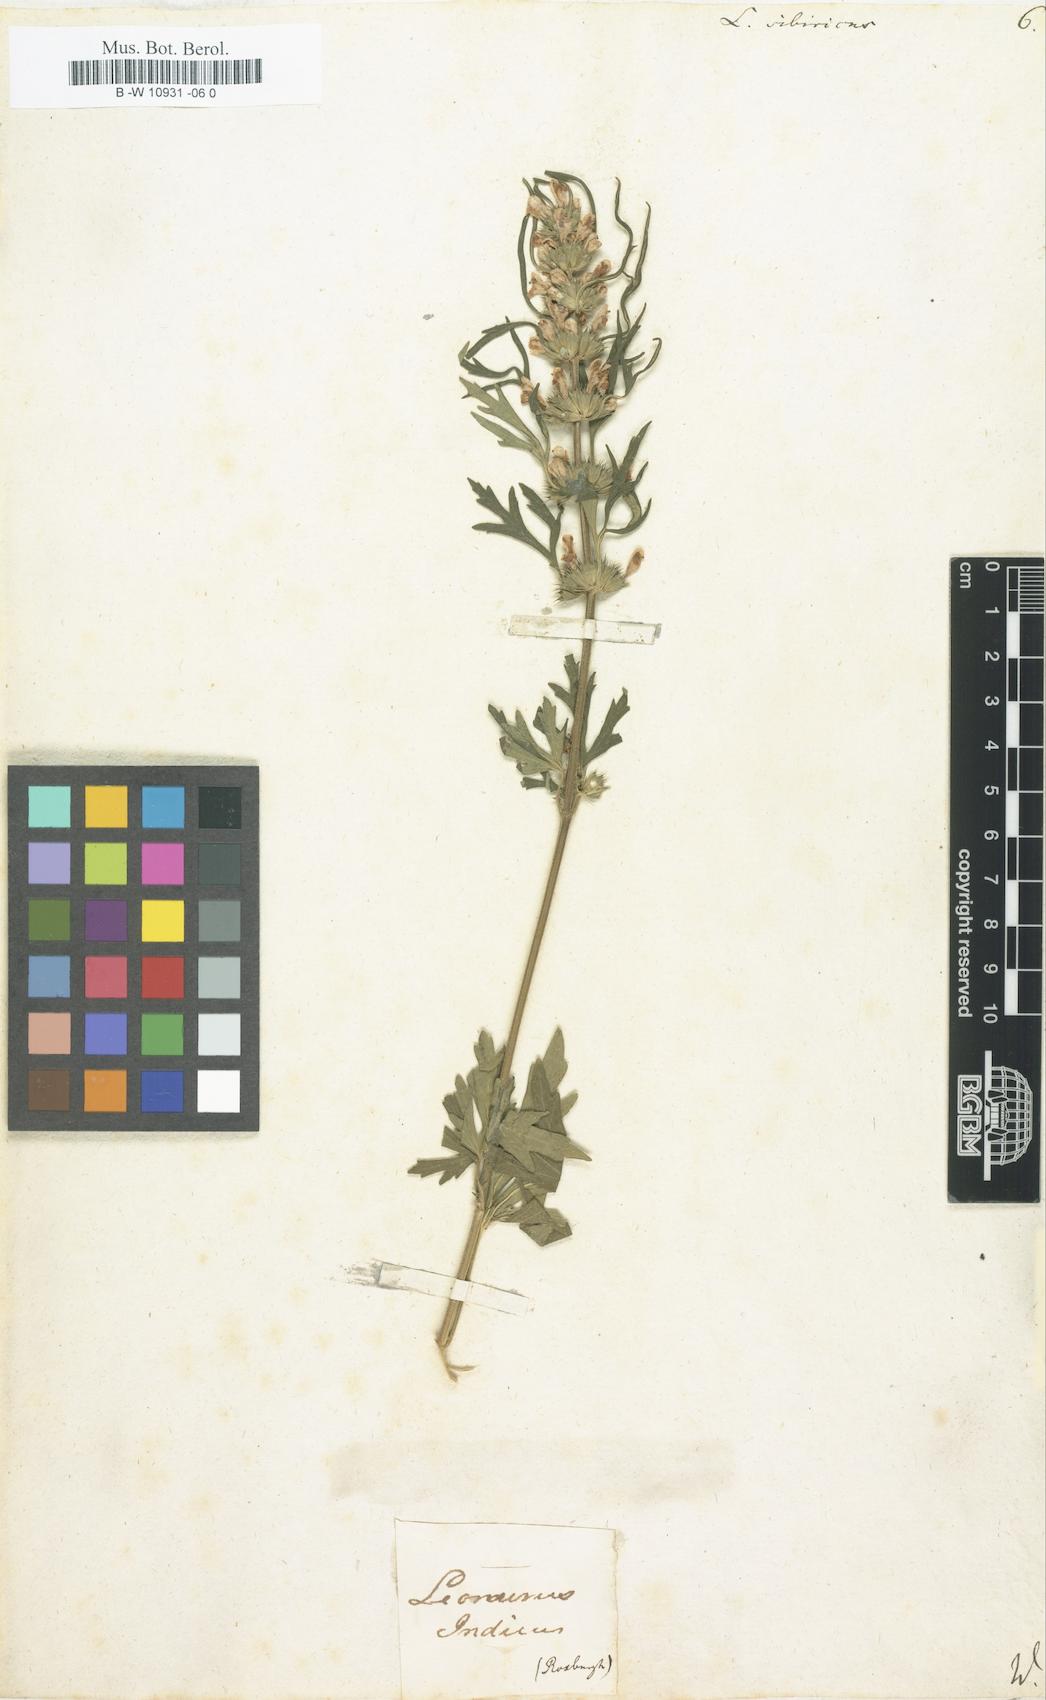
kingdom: Plantae
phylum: Tracheophyta
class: Magnoliopsida
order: Lamiales
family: Lamiaceae
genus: Leonurus
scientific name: Leonurus sibiricus
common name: Honeyweed
